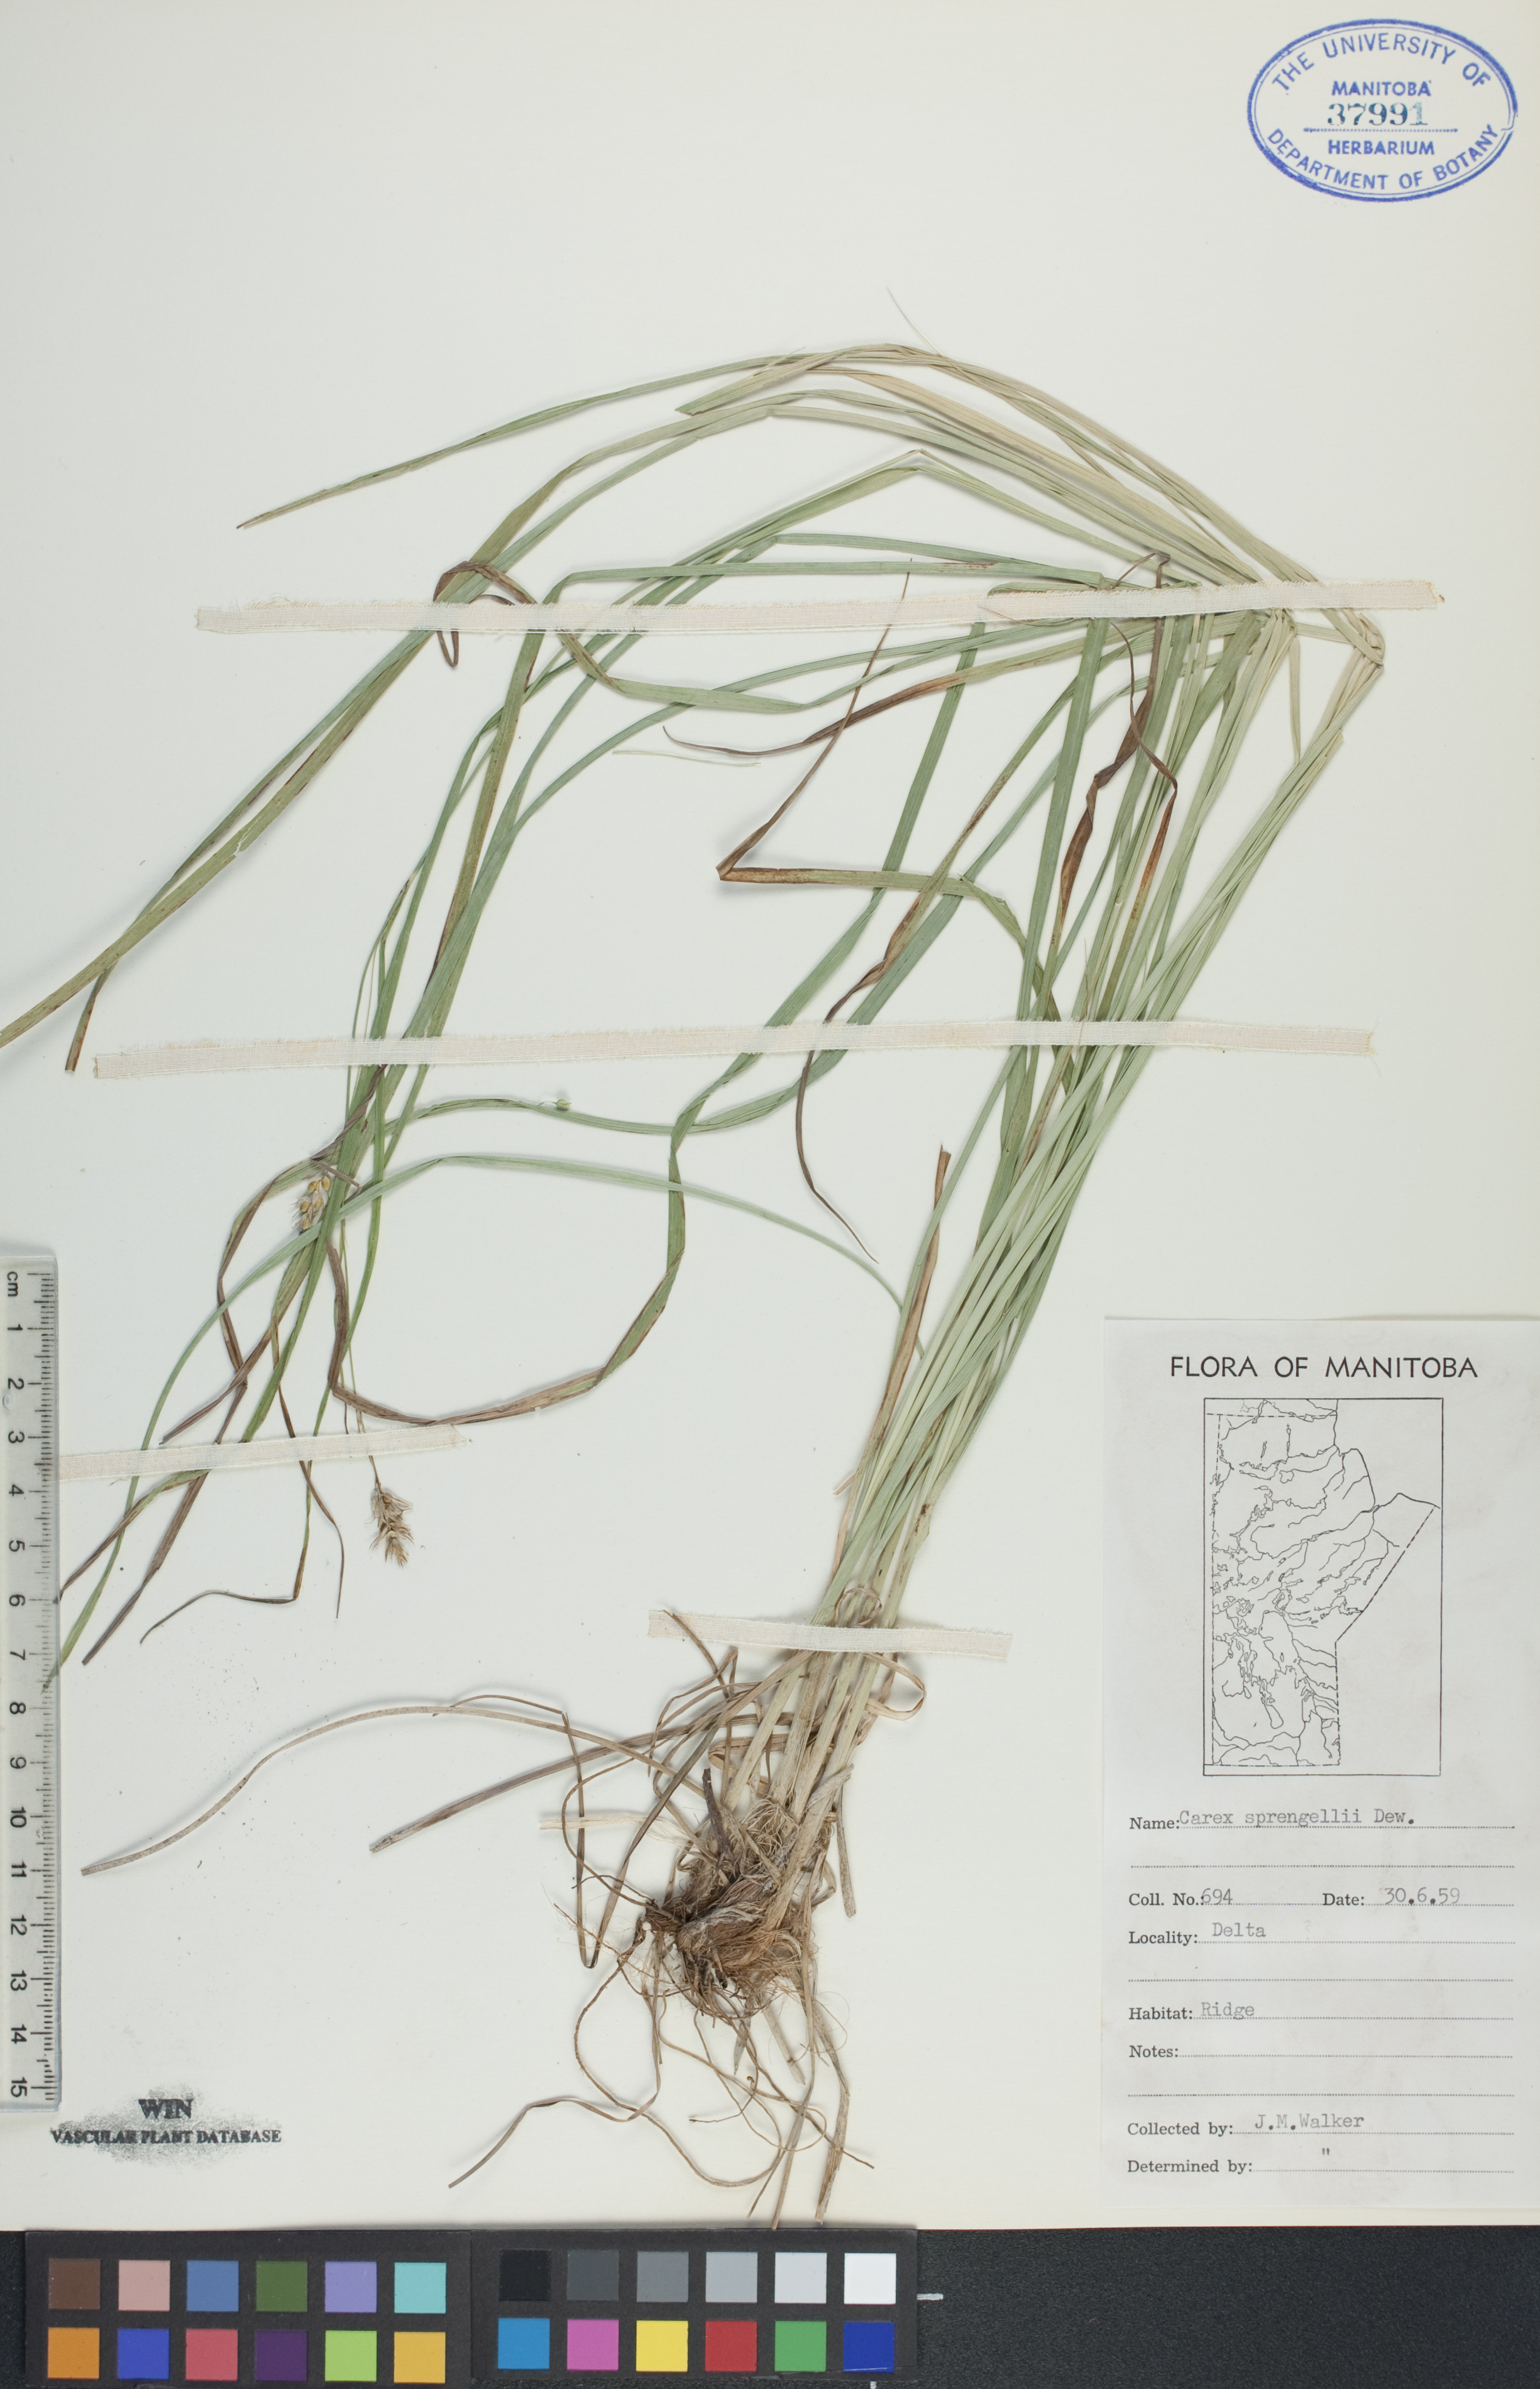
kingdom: Plantae
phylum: Tracheophyta
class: Liliopsida
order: Poales
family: Cyperaceae
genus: Carex
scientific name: Carex sprengelii
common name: Long-beaked sedge
